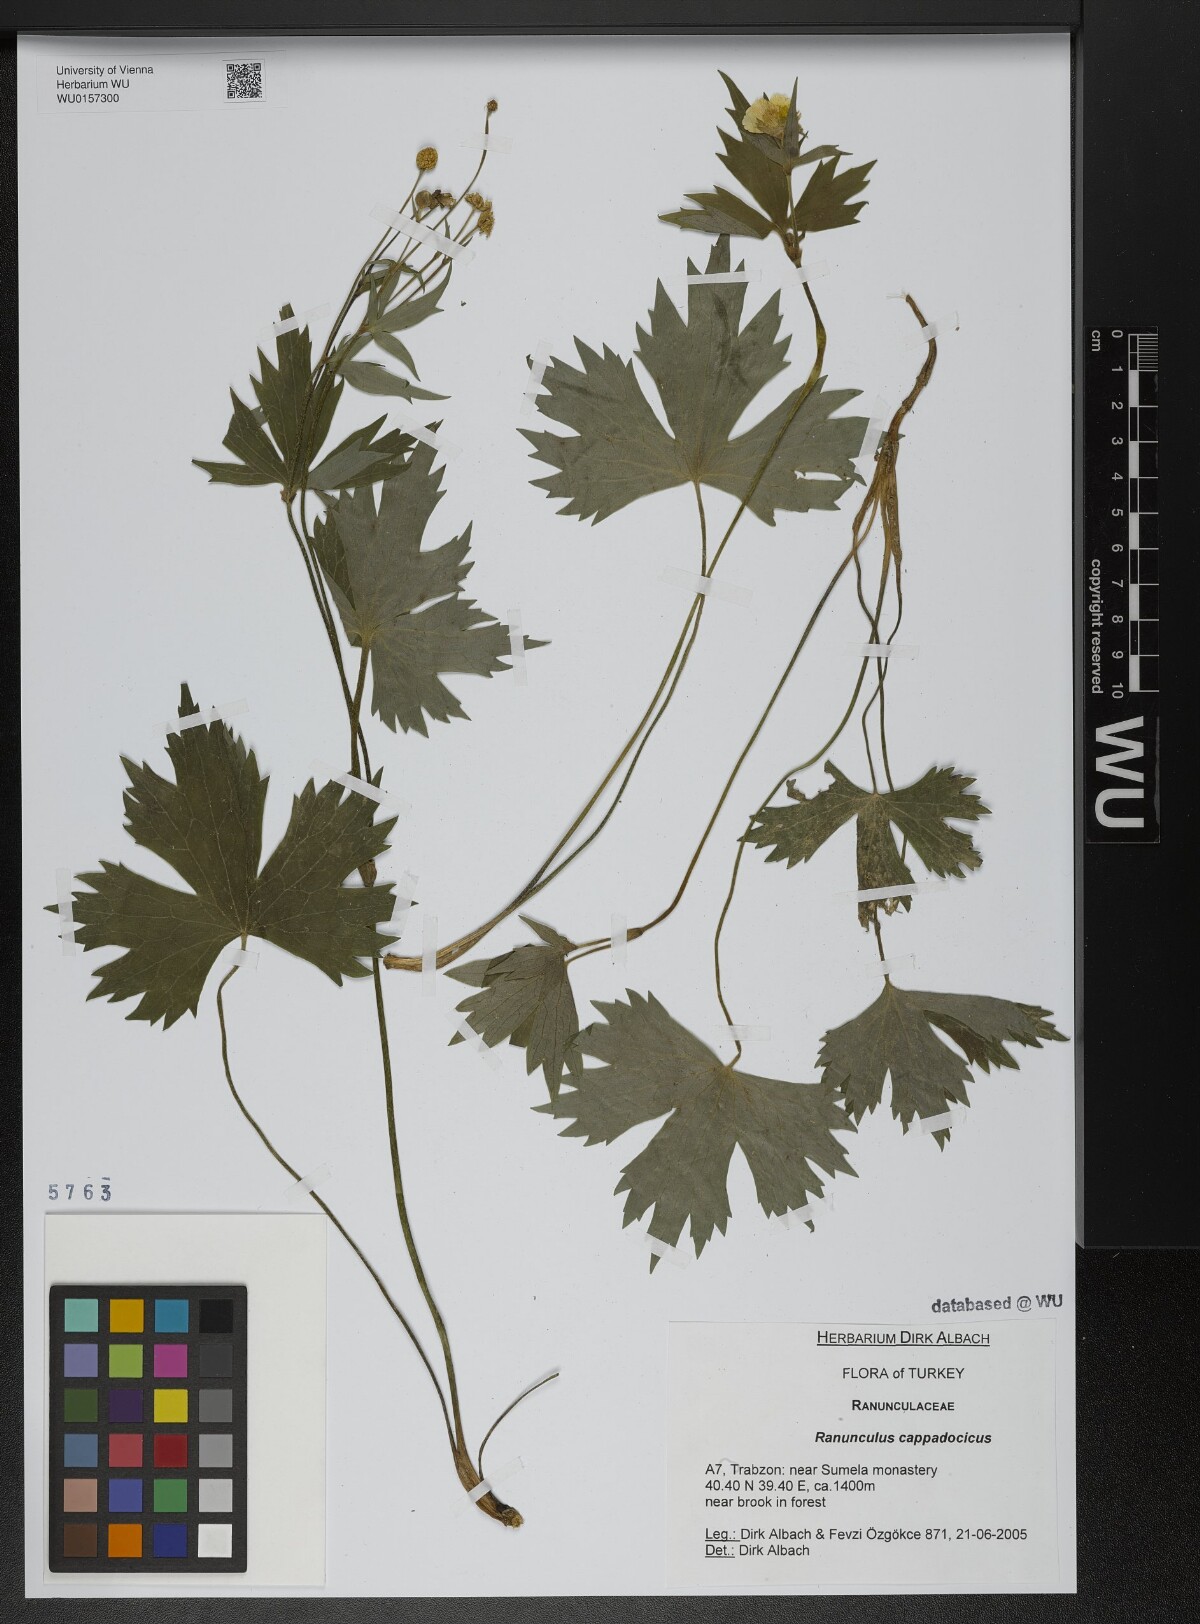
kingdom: Plantae
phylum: Tracheophyta
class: Magnoliopsida
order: Ranunculales
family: Ranunculaceae
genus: Ranunculus
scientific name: Ranunculus cappadocicus
